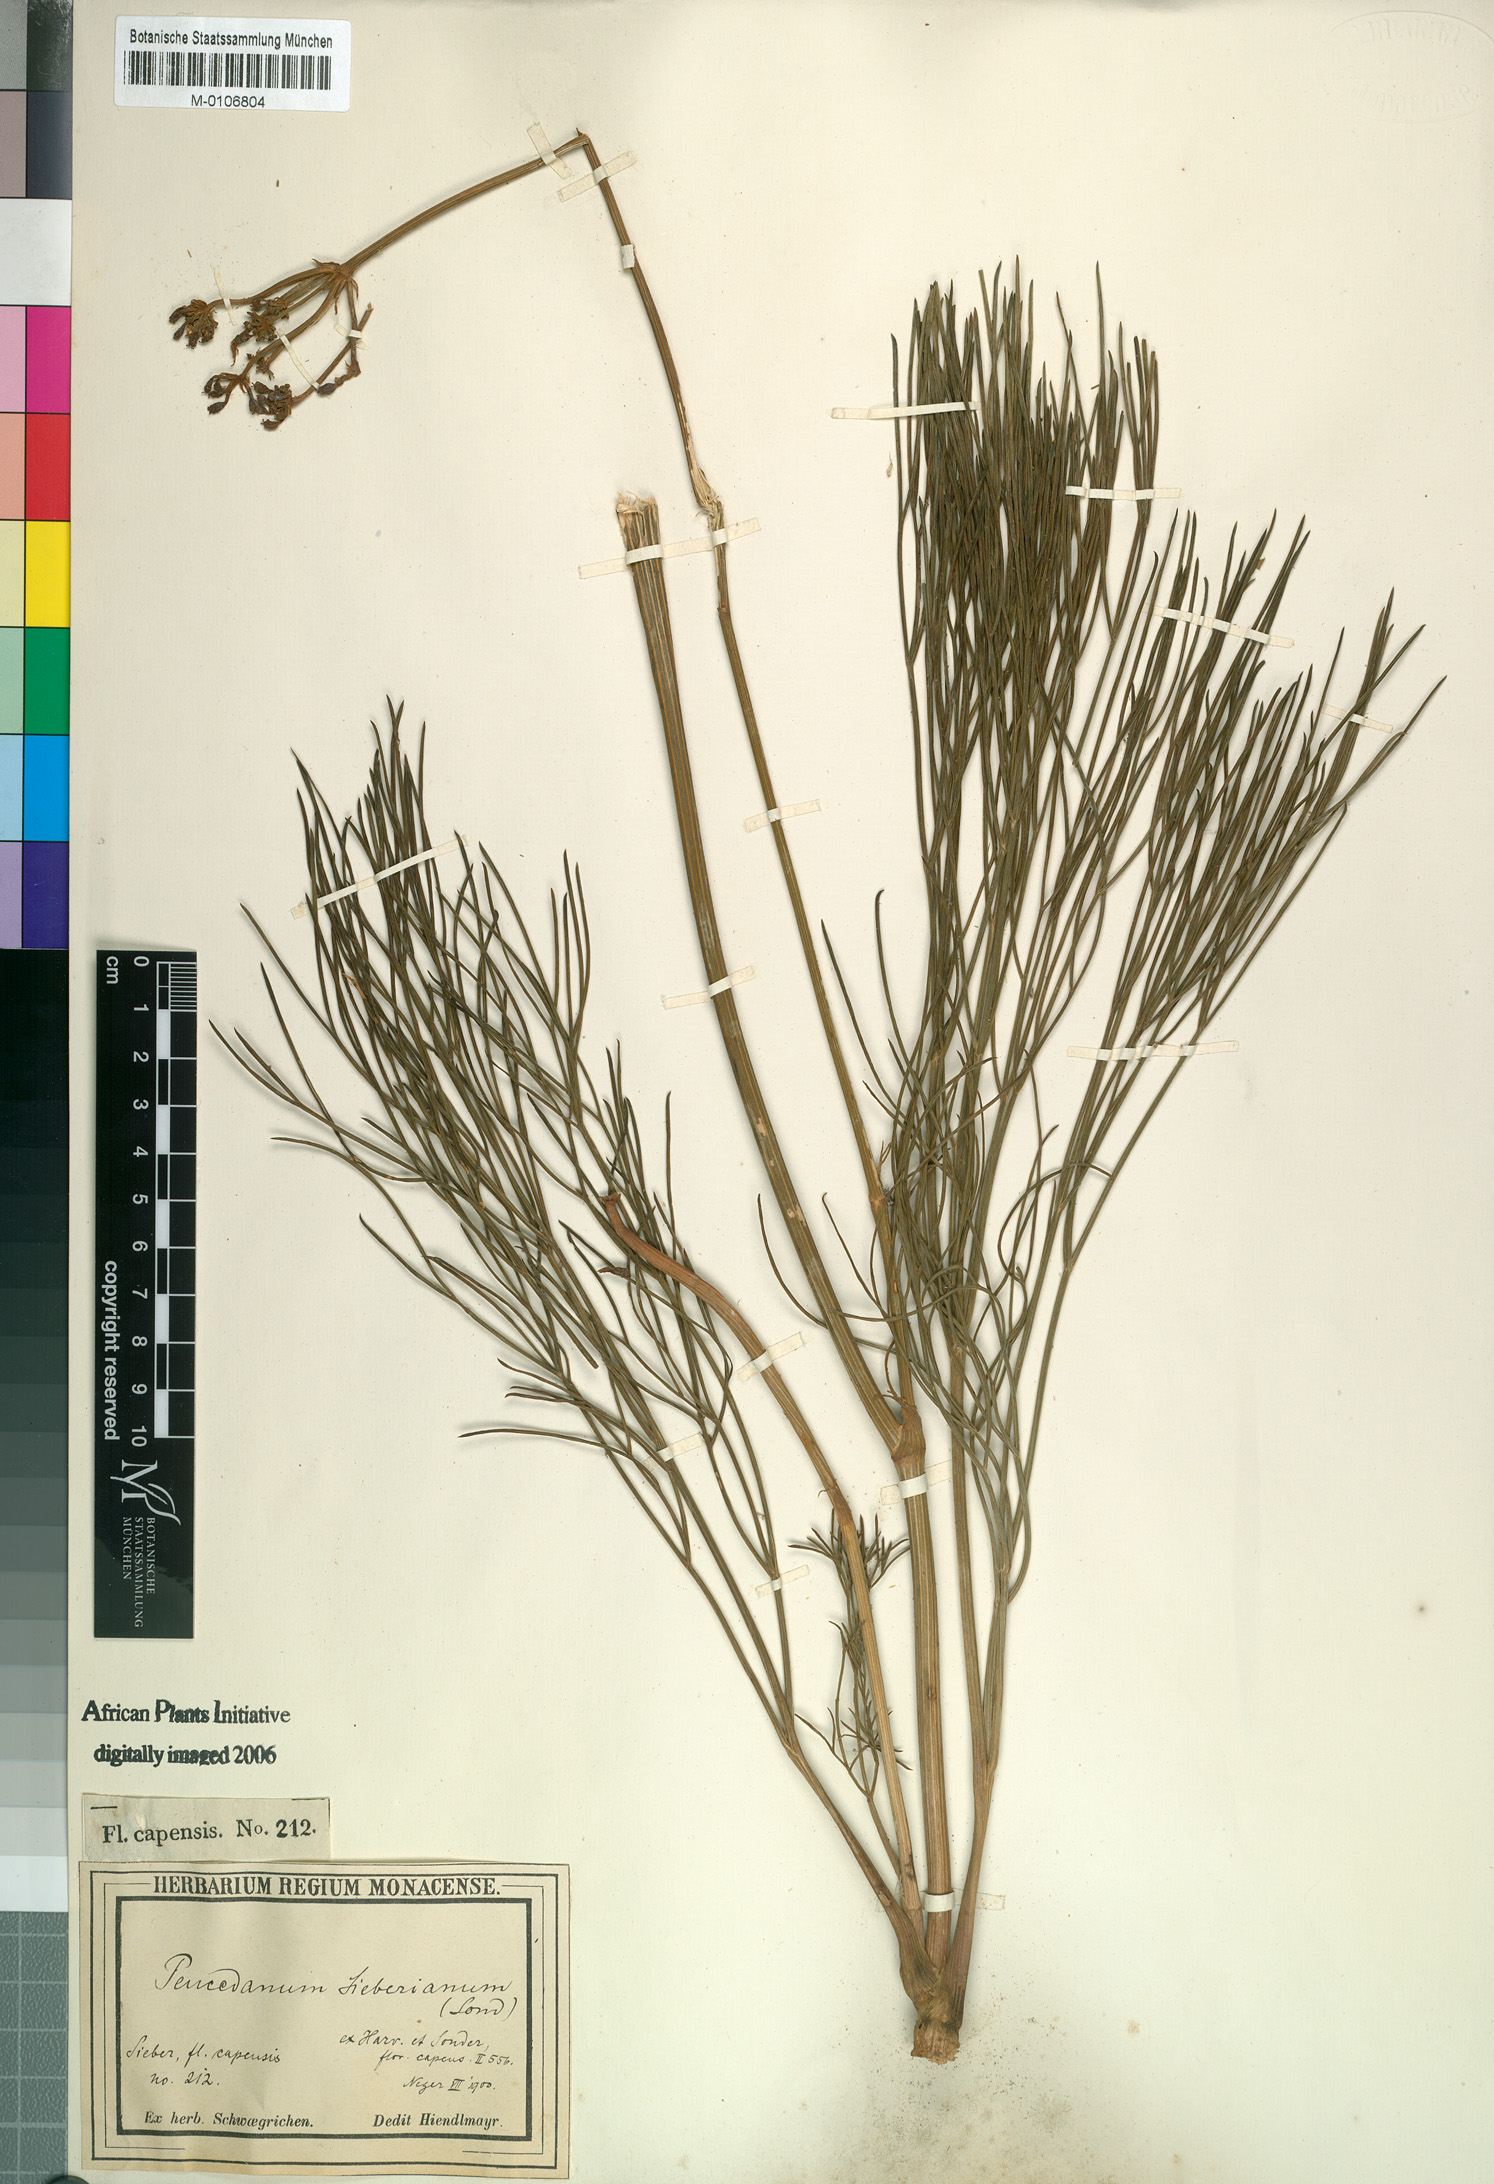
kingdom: Plantae
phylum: Tracheophyta
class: Magnoliopsida
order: Apiales
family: Apiaceae
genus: Nanobubon
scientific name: Nanobubon strictum
